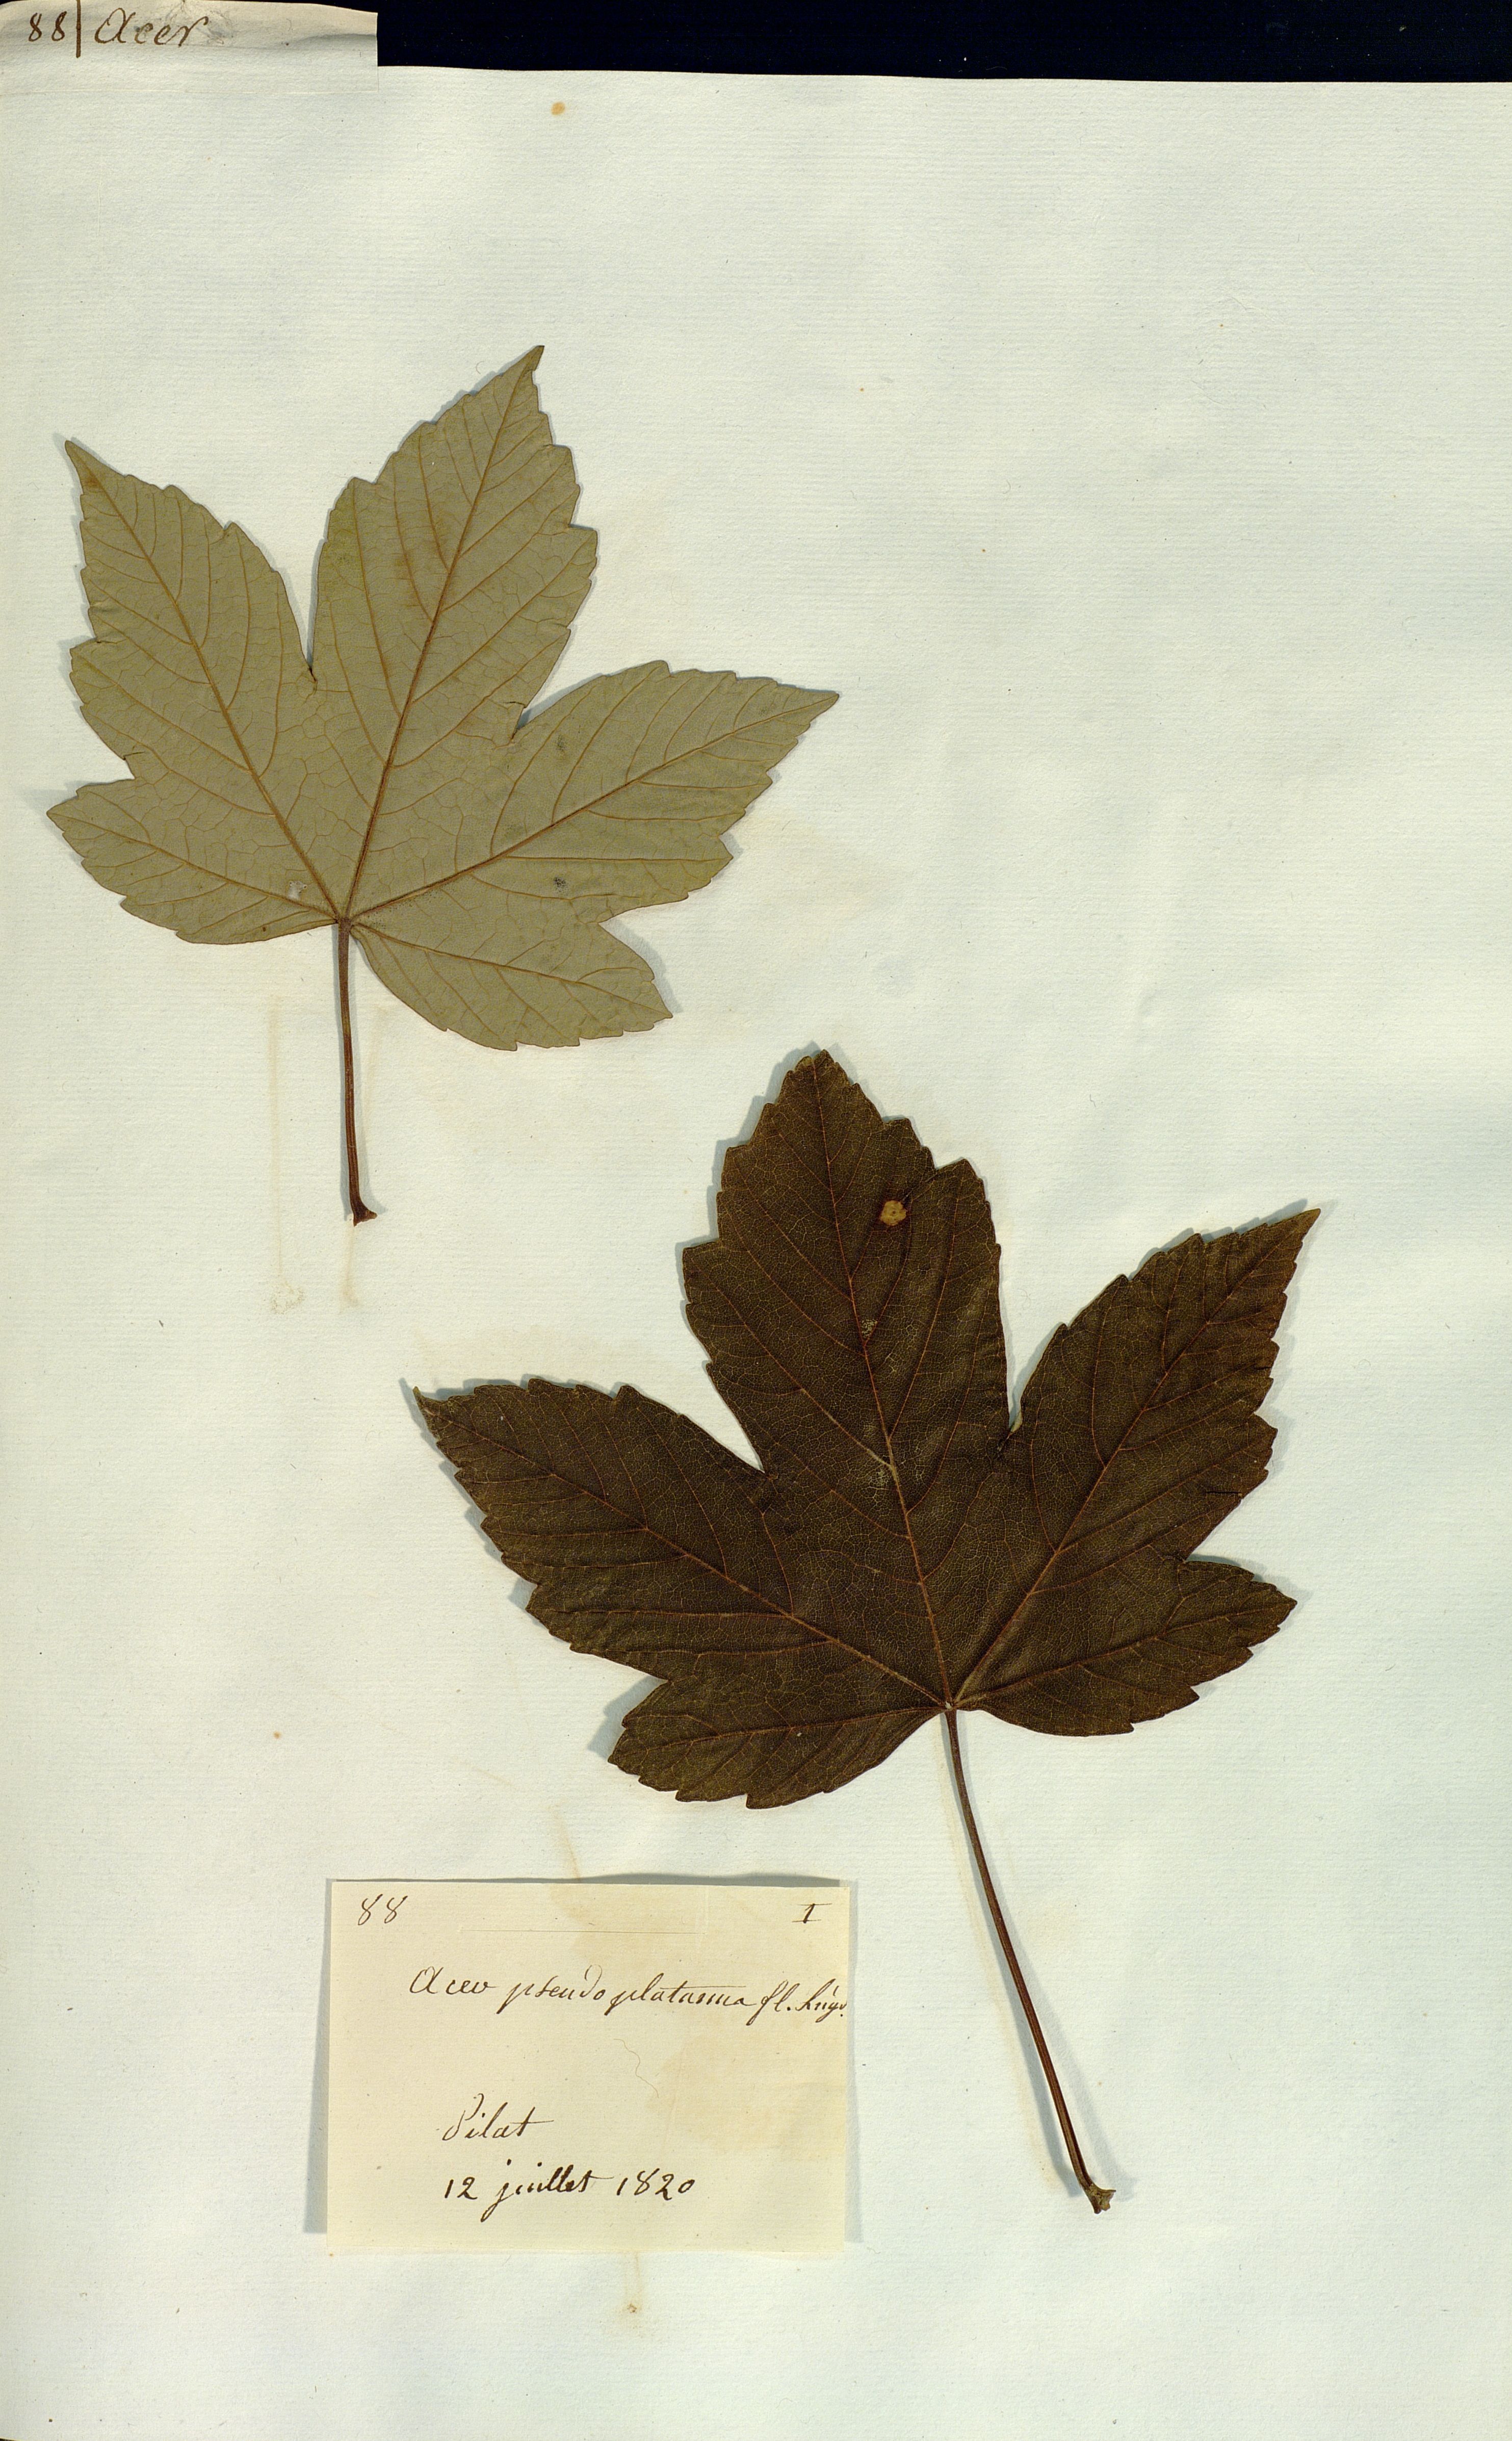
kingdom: Plantae
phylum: Tracheophyta
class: Magnoliopsida
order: Sapindales
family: Sapindaceae
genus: Acer
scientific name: Acer pseudoplatanus
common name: Sycamore
